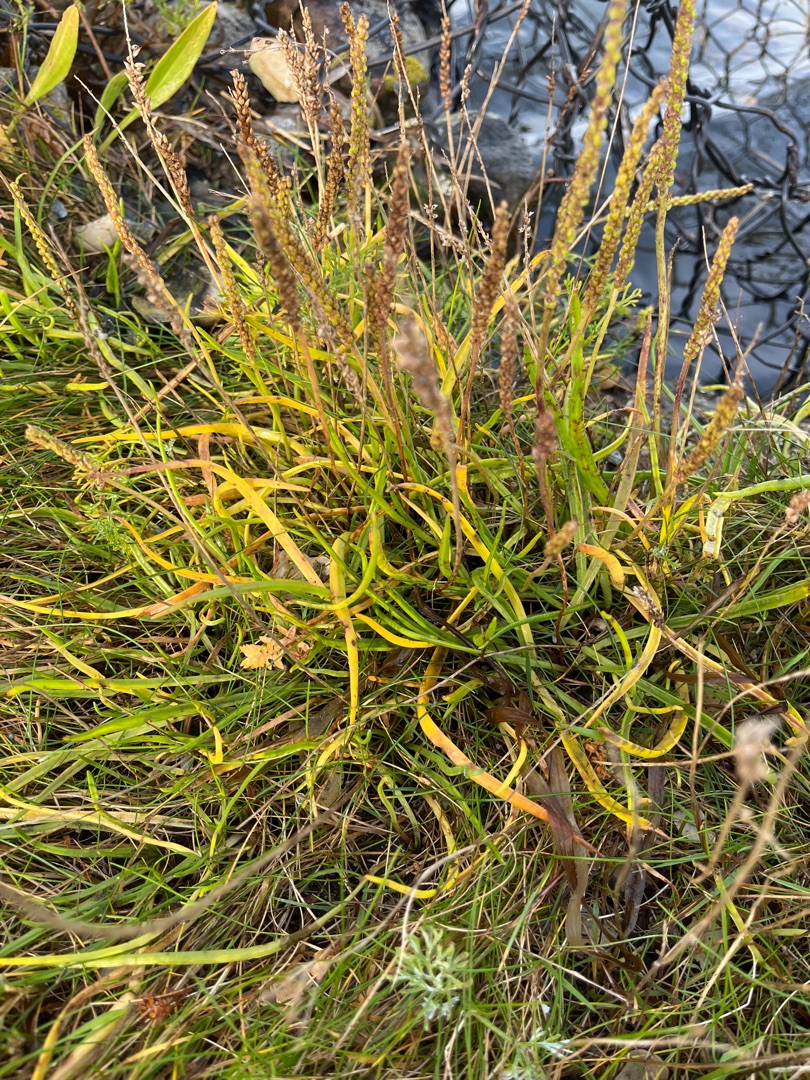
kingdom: Plantae
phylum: Tracheophyta
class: Magnoliopsida
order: Lamiales
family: Plantaginaceae
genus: Plantago
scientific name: Plantago maritima
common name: Strand-vejbred
